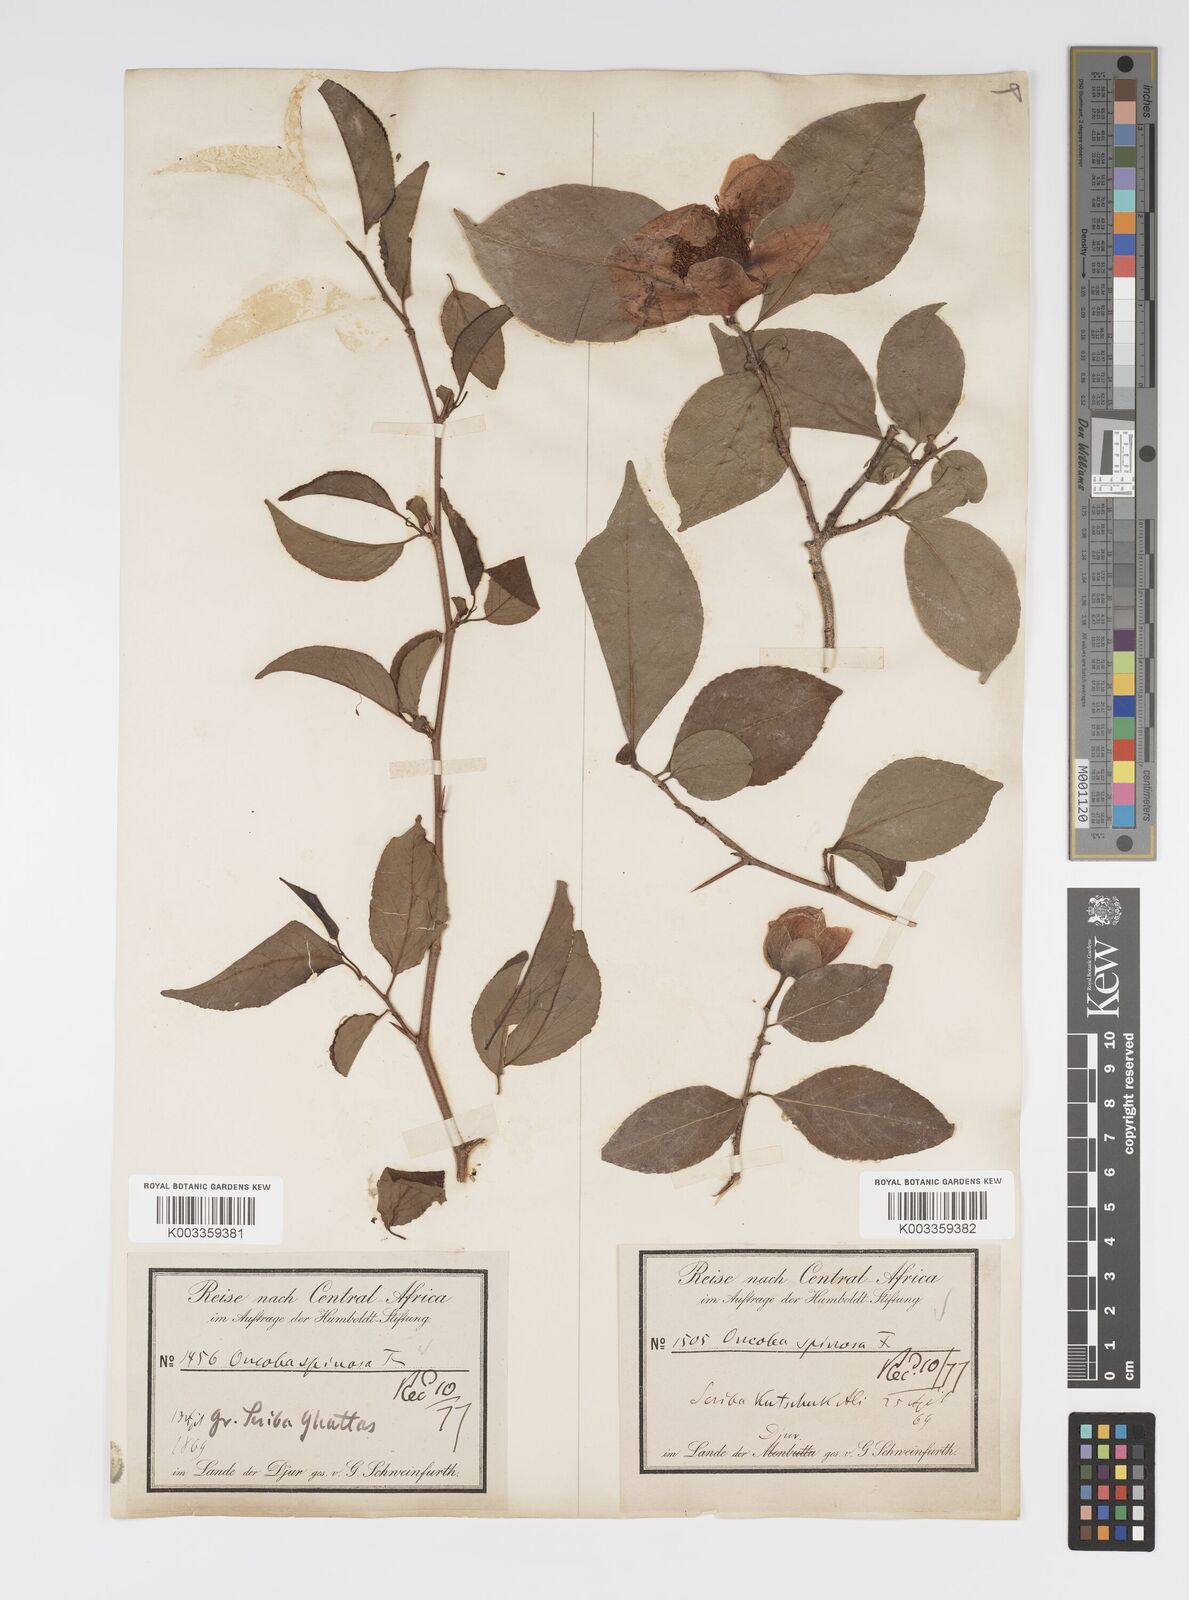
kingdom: Plantae
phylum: Tracheophyta
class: Magnoliopsida
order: Malpighiales
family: Salicaceae
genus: Oncoba
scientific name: Oncoba spinosa
